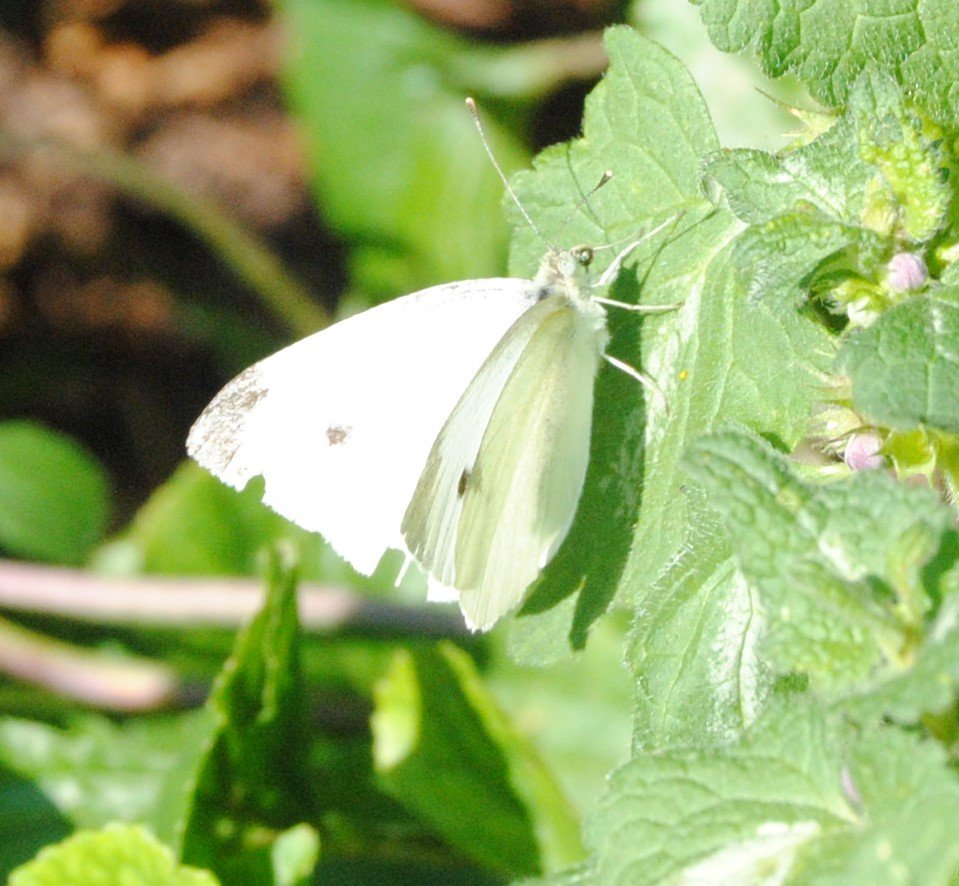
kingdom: Animalia
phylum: Arthropoda
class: Insecta
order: Lepidoptera
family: Pieridae
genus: Pieris
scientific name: Pieris rapae
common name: Cabbage White
